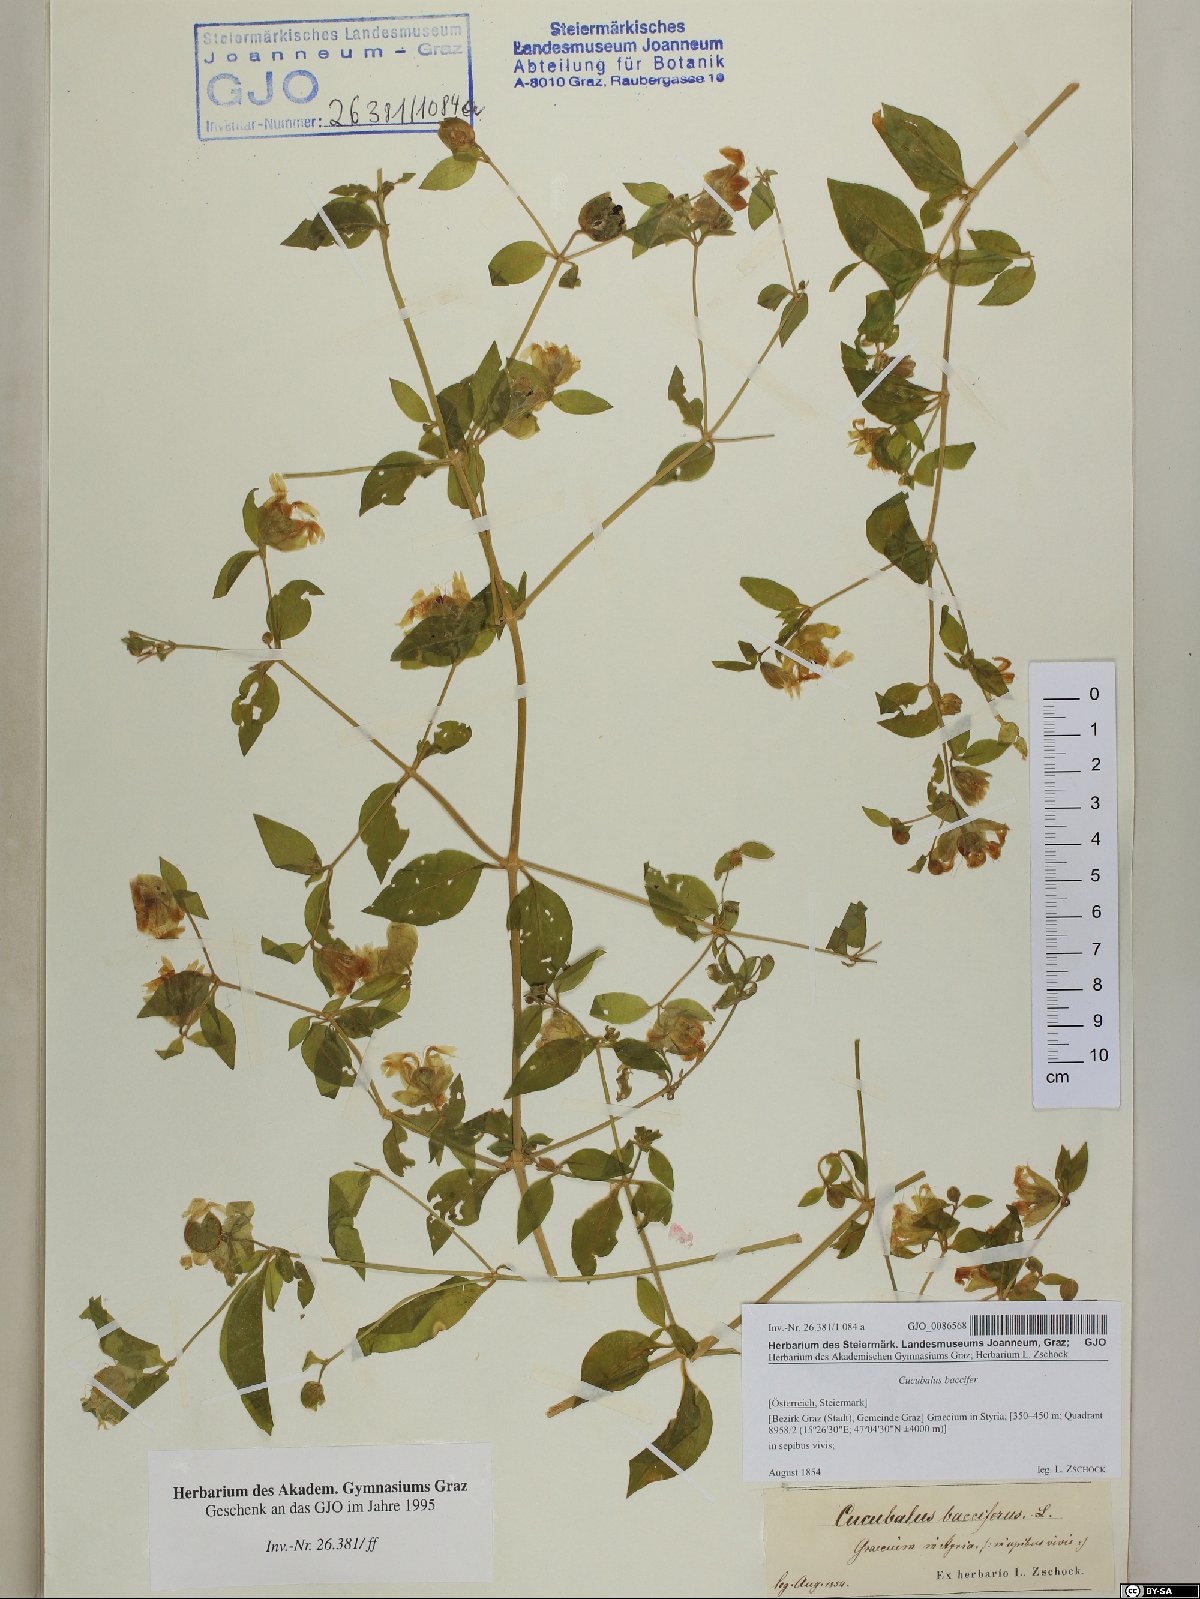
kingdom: Plantae
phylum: Tracheophyta
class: Magnoliopsida
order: Caryophyllales
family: Caryophyllaceae
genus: Silene
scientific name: Silene baccifera
